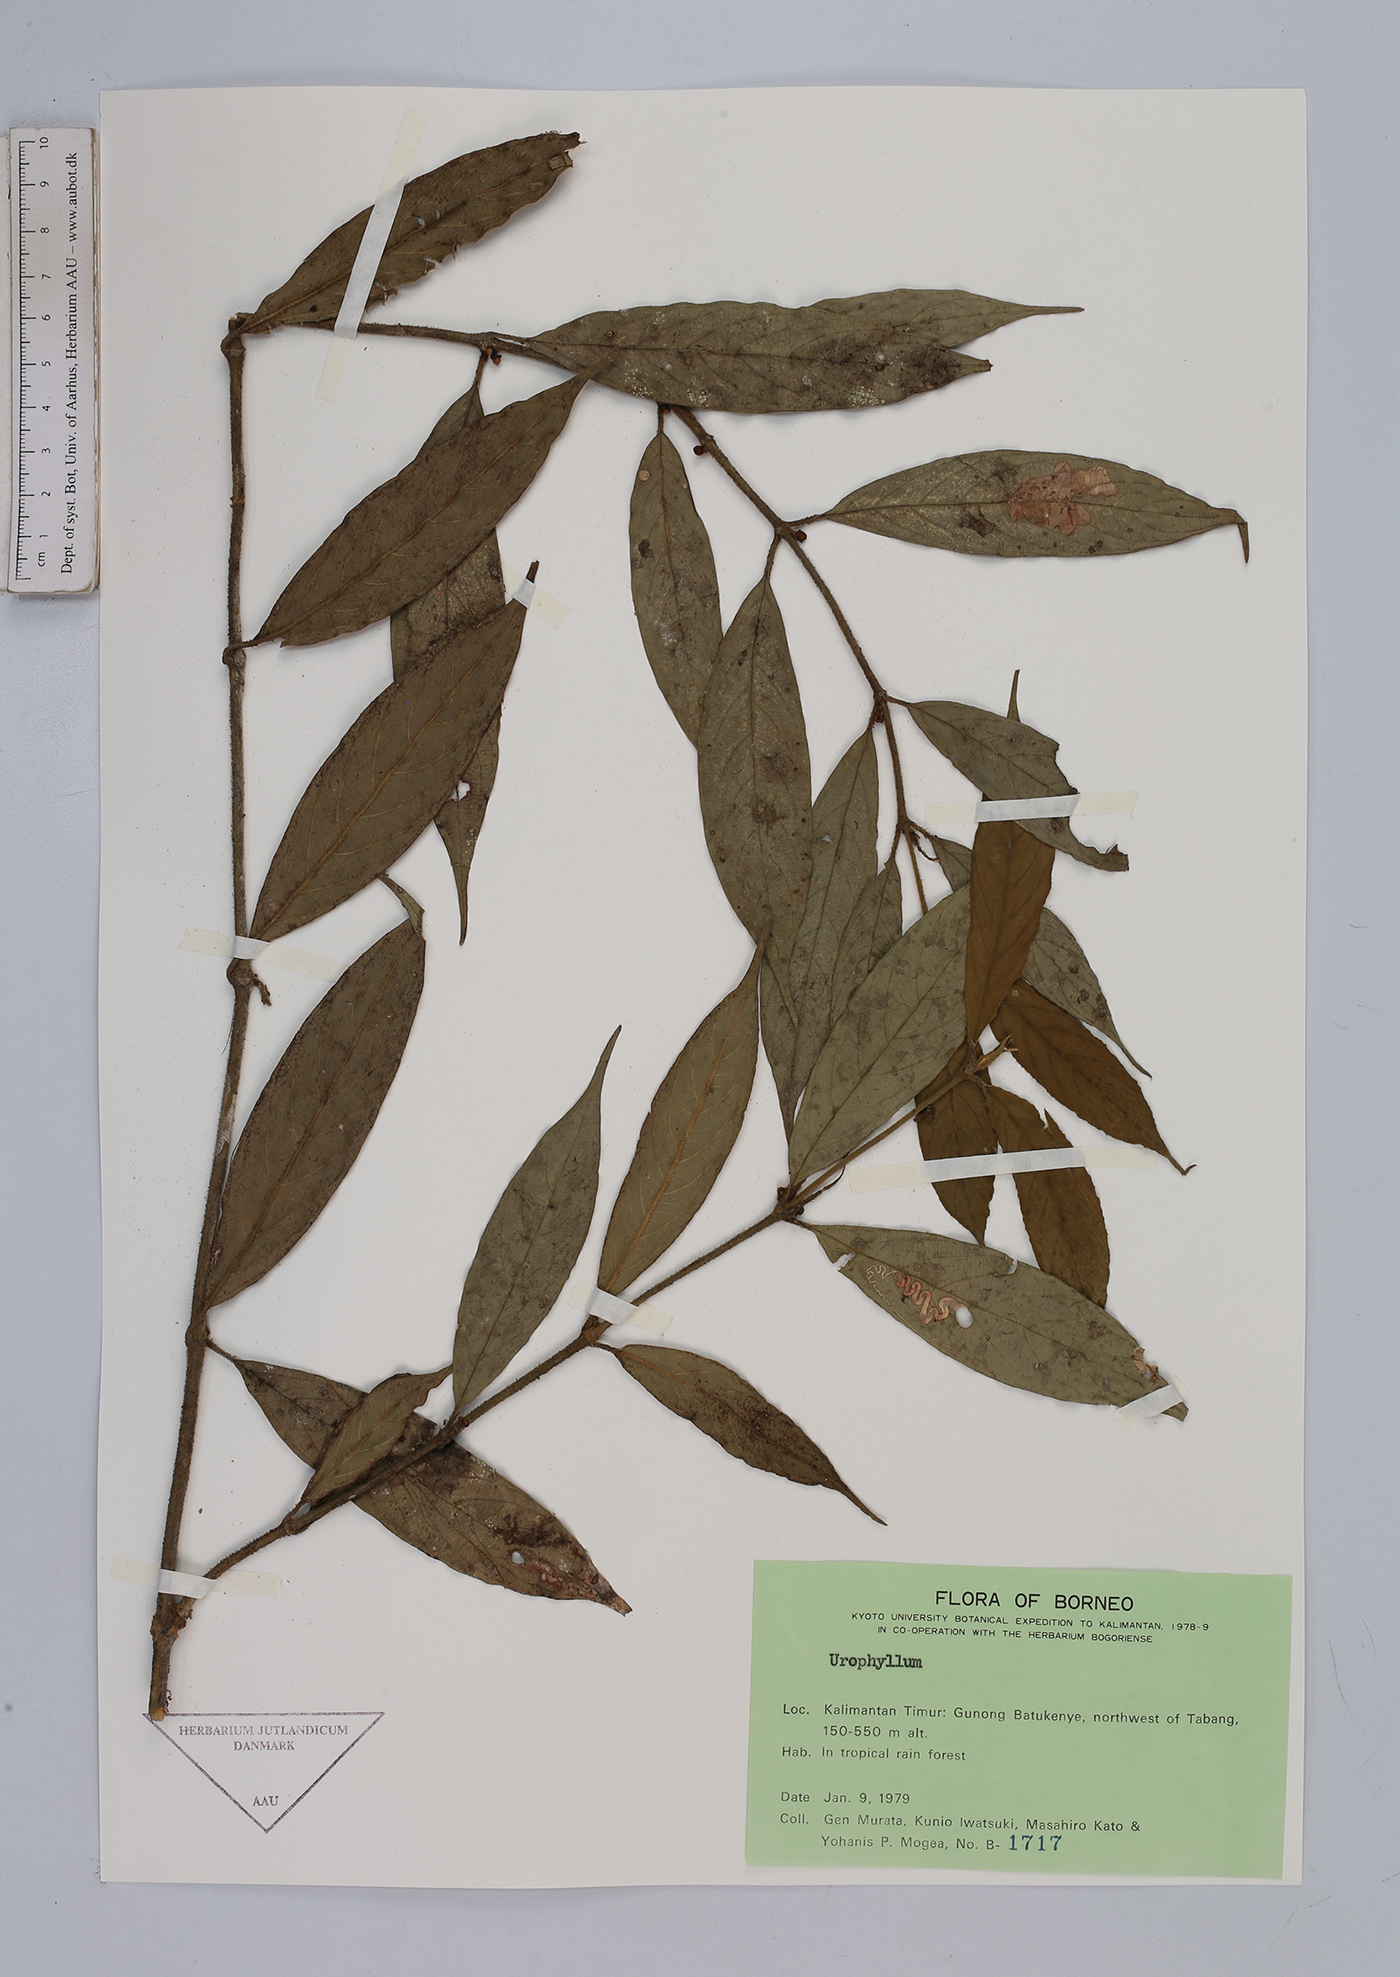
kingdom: Plantae
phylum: Tracheophyta
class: Magnoliopsida
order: Gentianales
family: Rubiaceae
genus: Urophyllum
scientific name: Urophyllum
